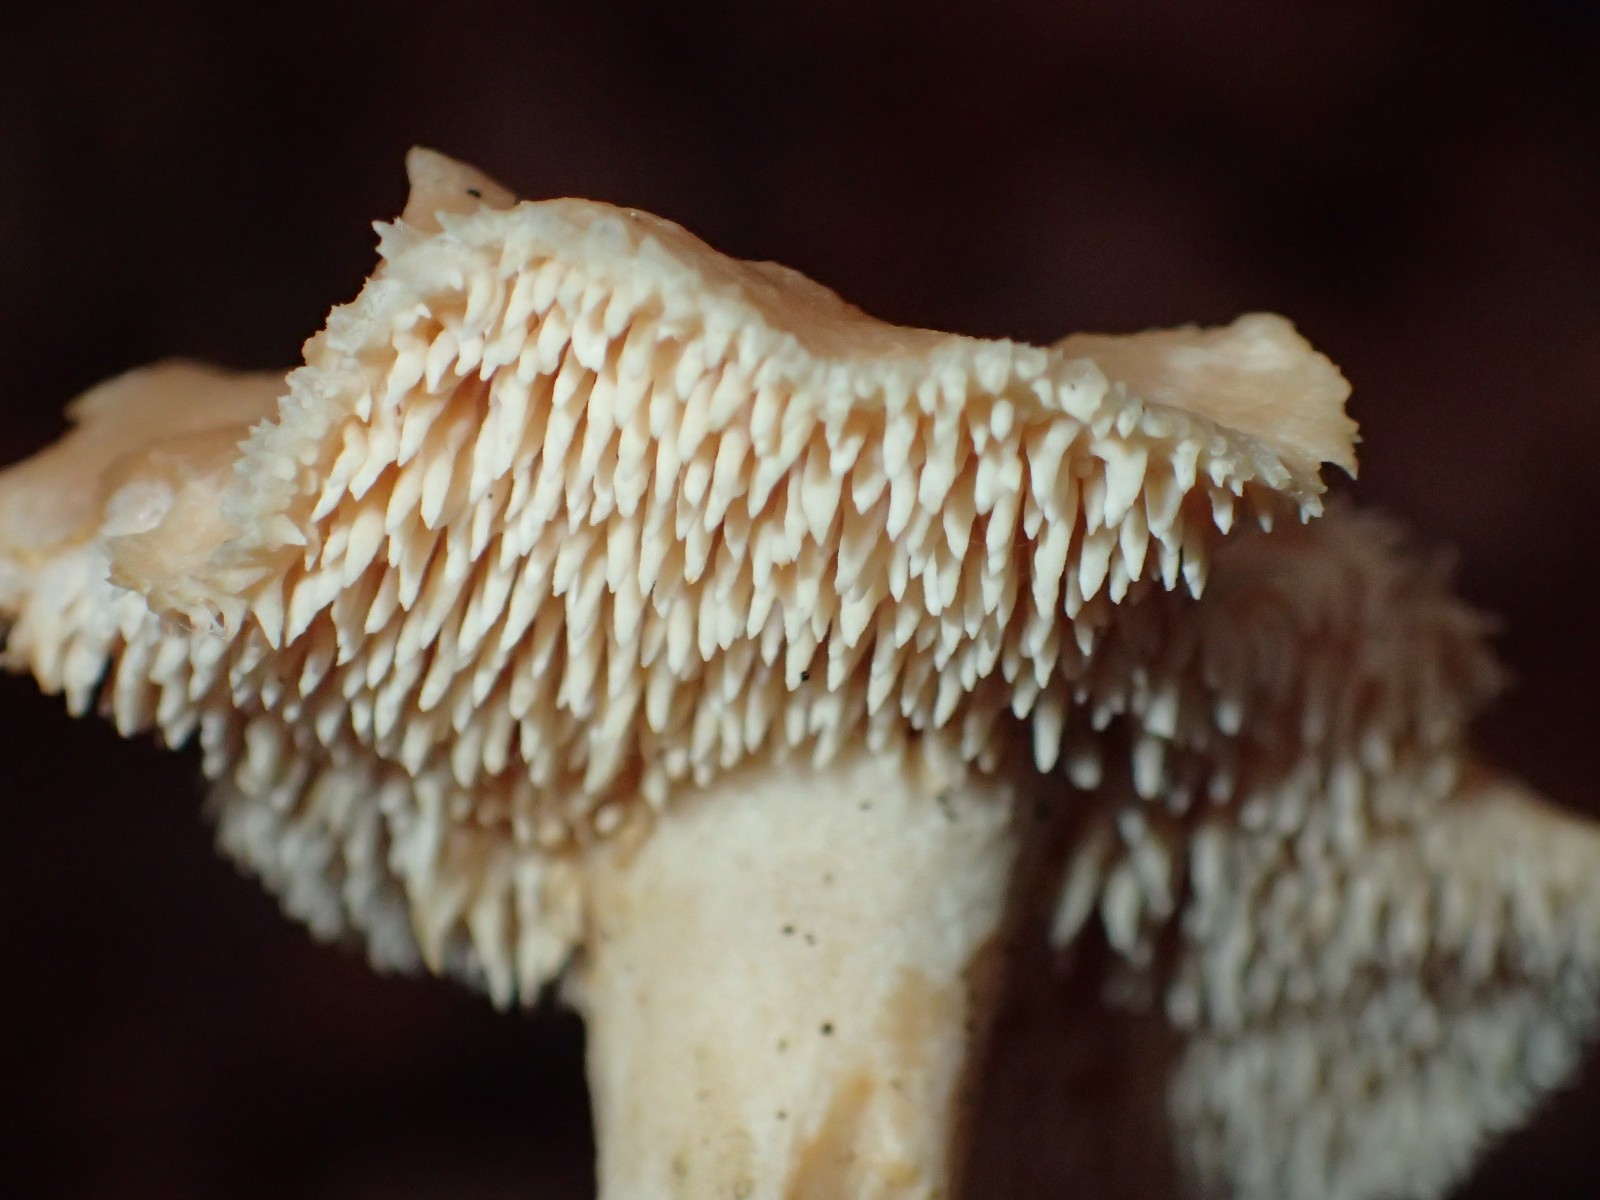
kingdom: Fungi
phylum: Basidiomycota
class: Agaricomycetes
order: Cantharellales
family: Hydnaceae
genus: Hydnum
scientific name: Hydnum
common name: pigsvamp
